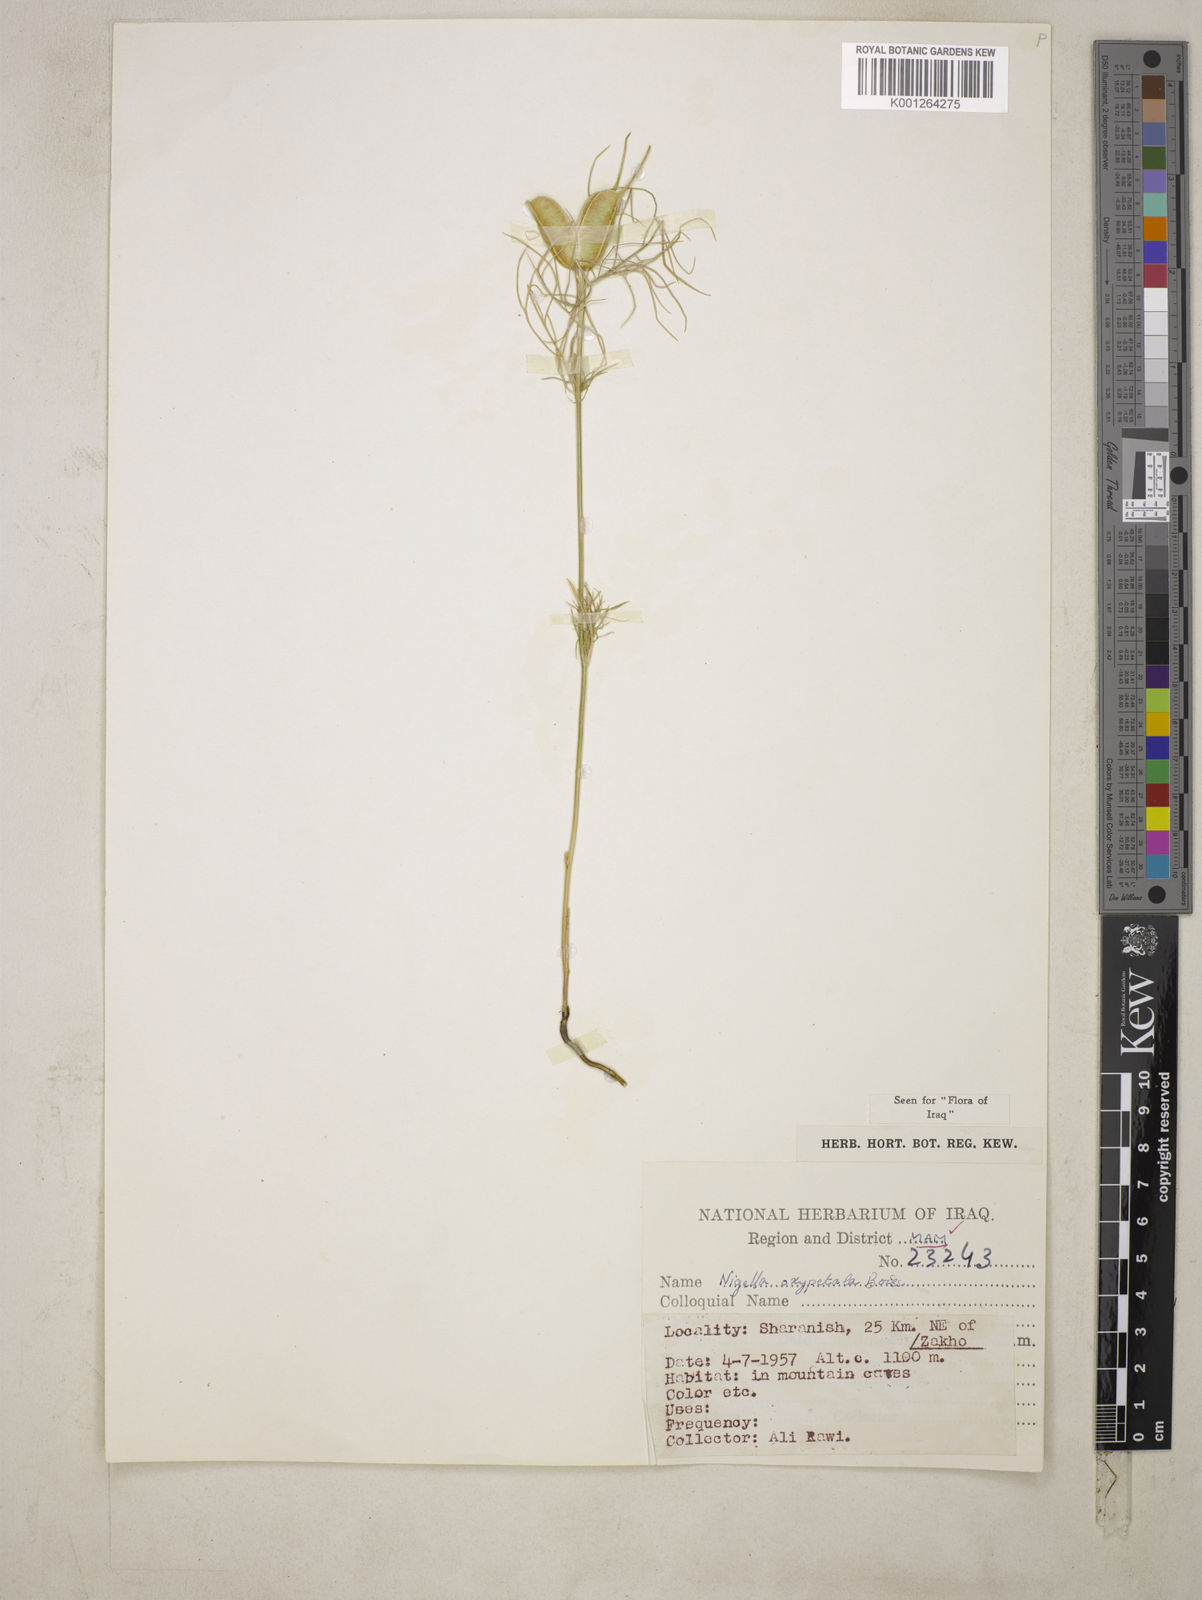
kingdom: Plantae
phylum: Tracheophyta
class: Magnoliopsida
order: Ranunculales
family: Ranunculaceae
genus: Nigella
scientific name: Nigella oxypetala
